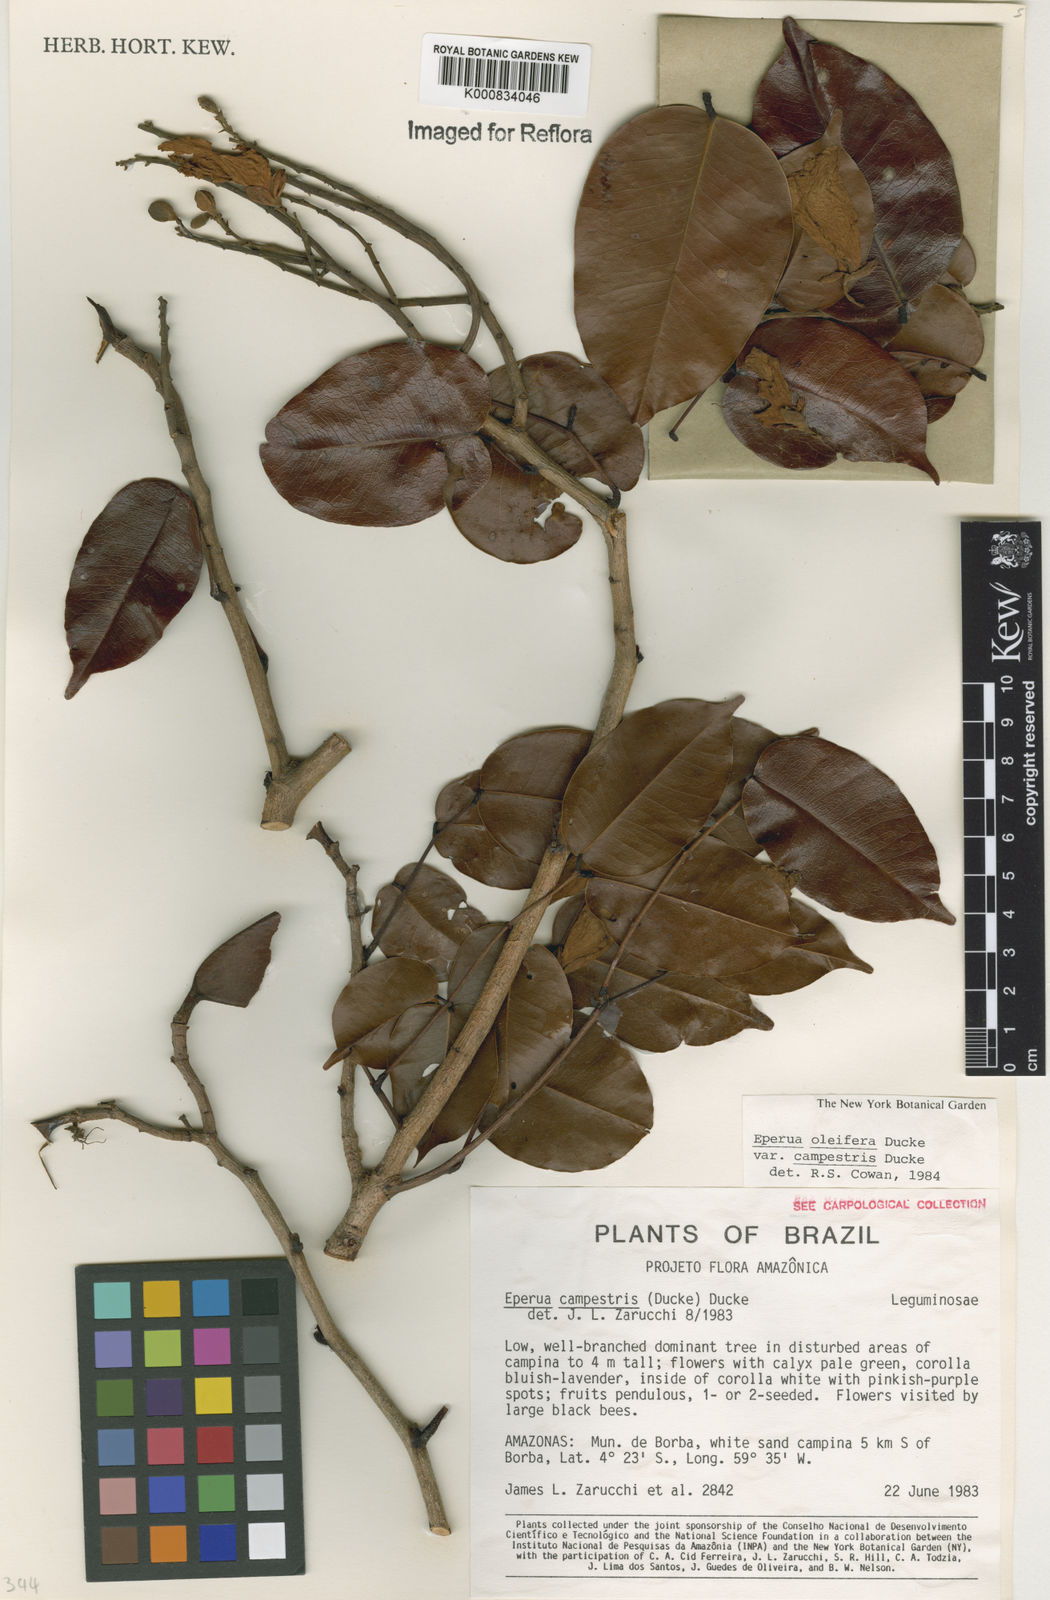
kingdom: Plantae
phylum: Tracheophyta
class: Magnoliopsida
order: Fabales
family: Fabaceae
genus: Eperua
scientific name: Eperua oleifera
